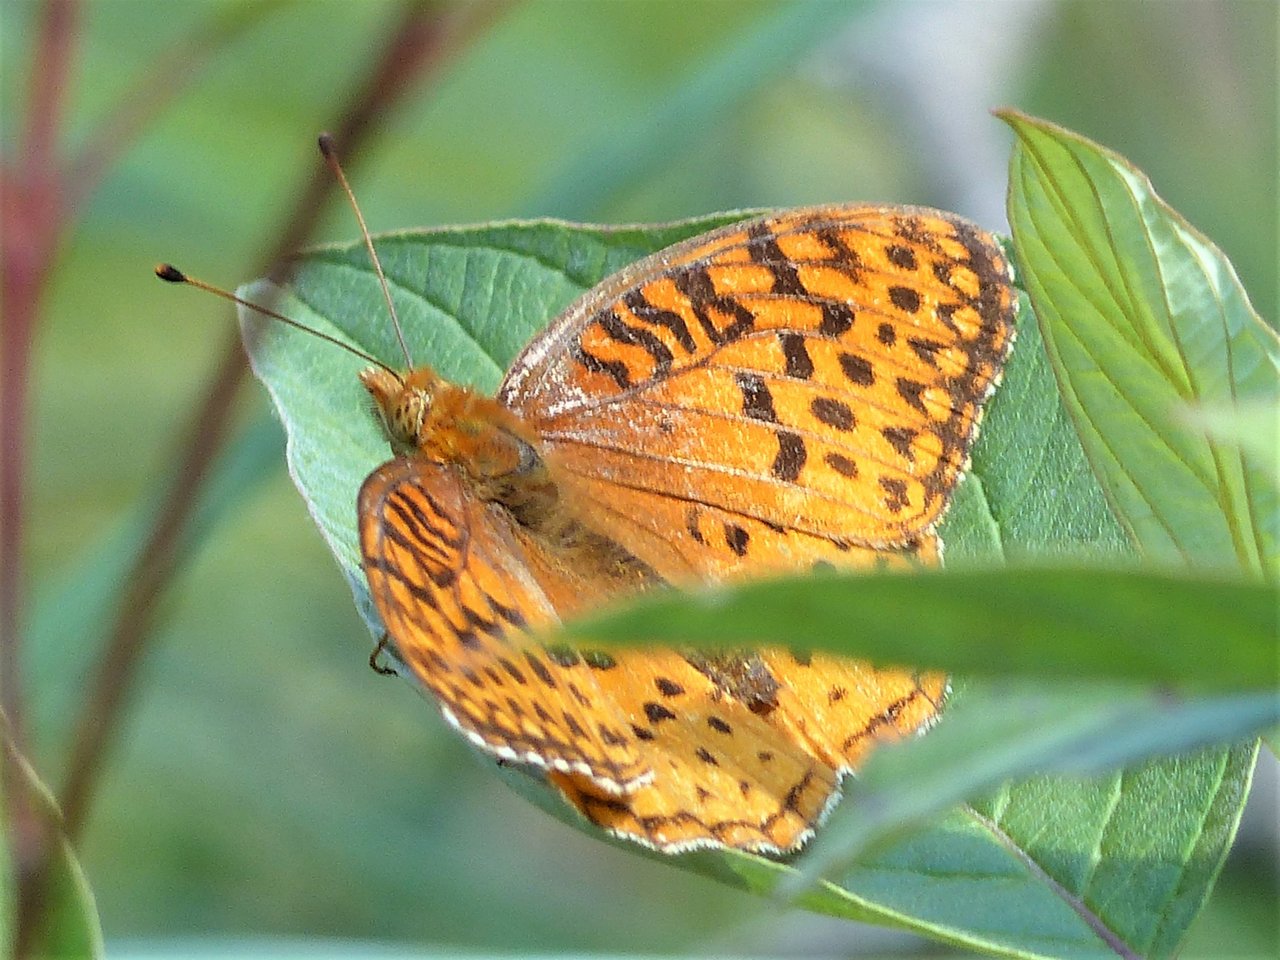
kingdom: Animalia
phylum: Arthropoda
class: Insecta
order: Lepidoptera
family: Nymphalidae
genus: Speyeria
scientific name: Speyeria aphrodite
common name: Aphrodite Fritillary
